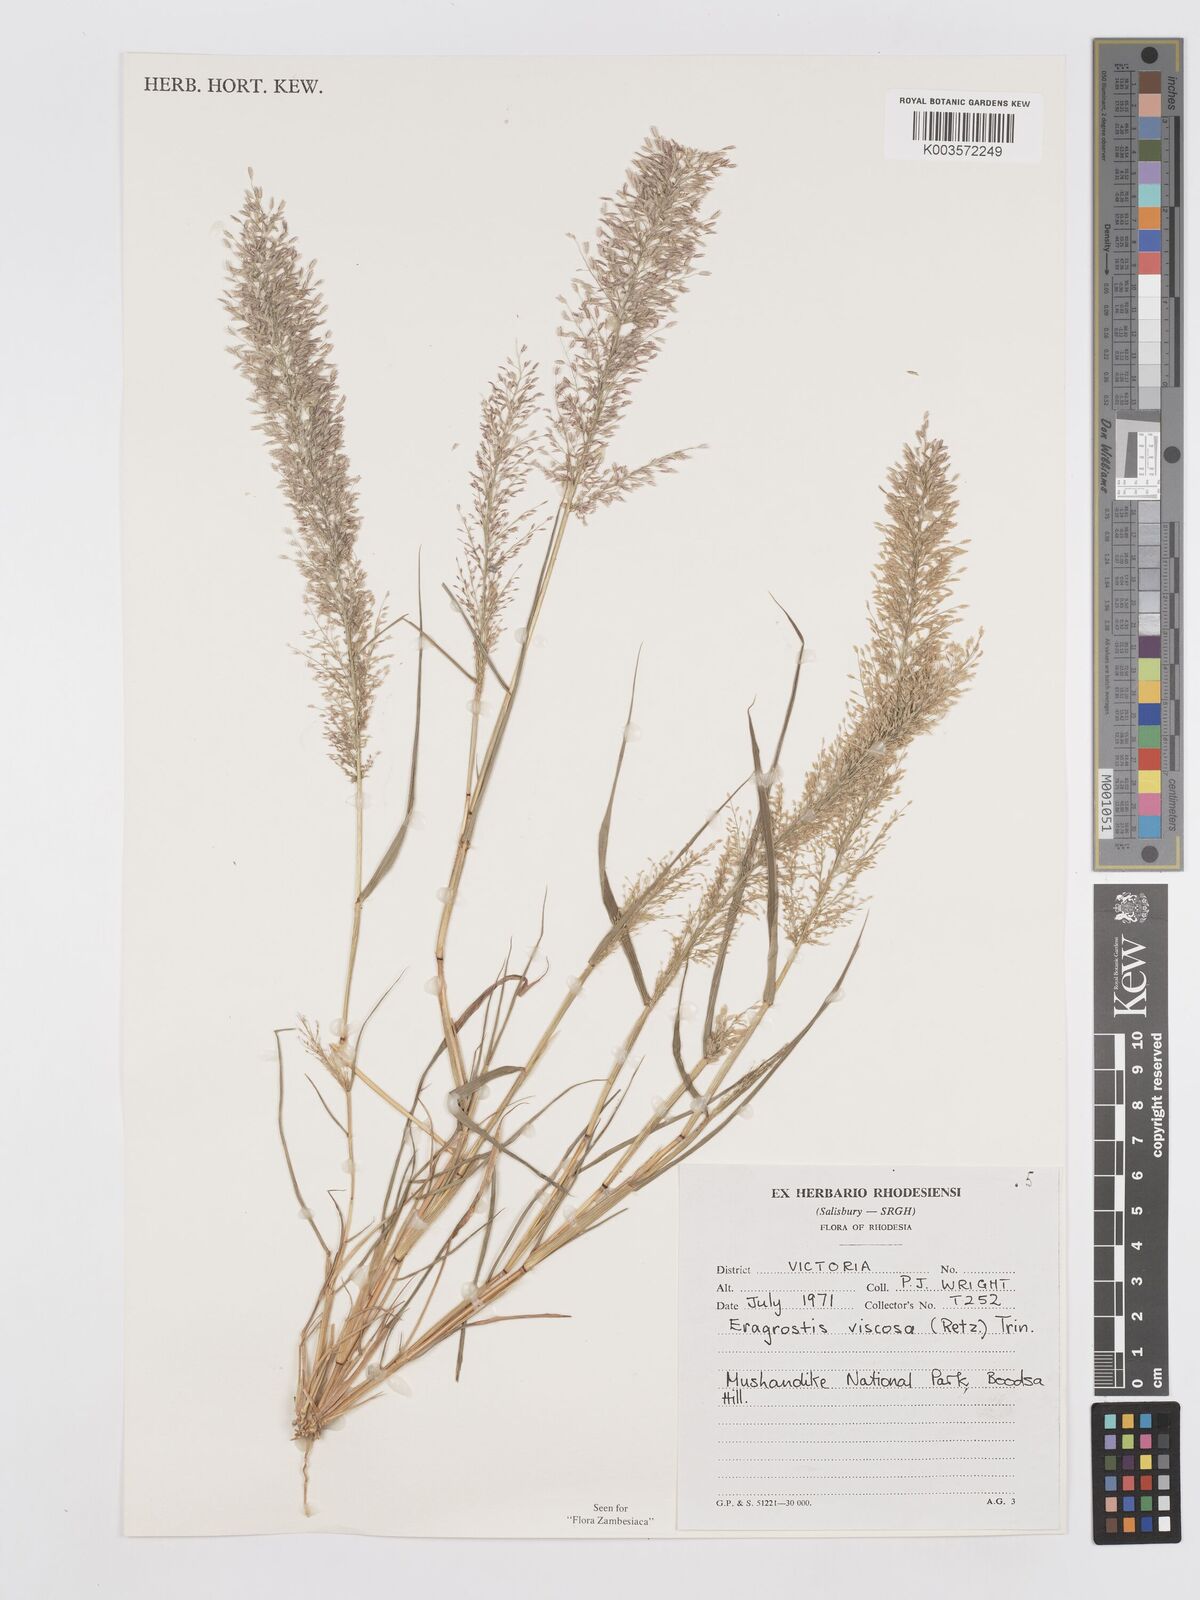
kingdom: Plantae
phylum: Tracheophyta
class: Liliopsida
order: Poales
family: Poaceae
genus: Eragrostis
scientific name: Eragrostis
